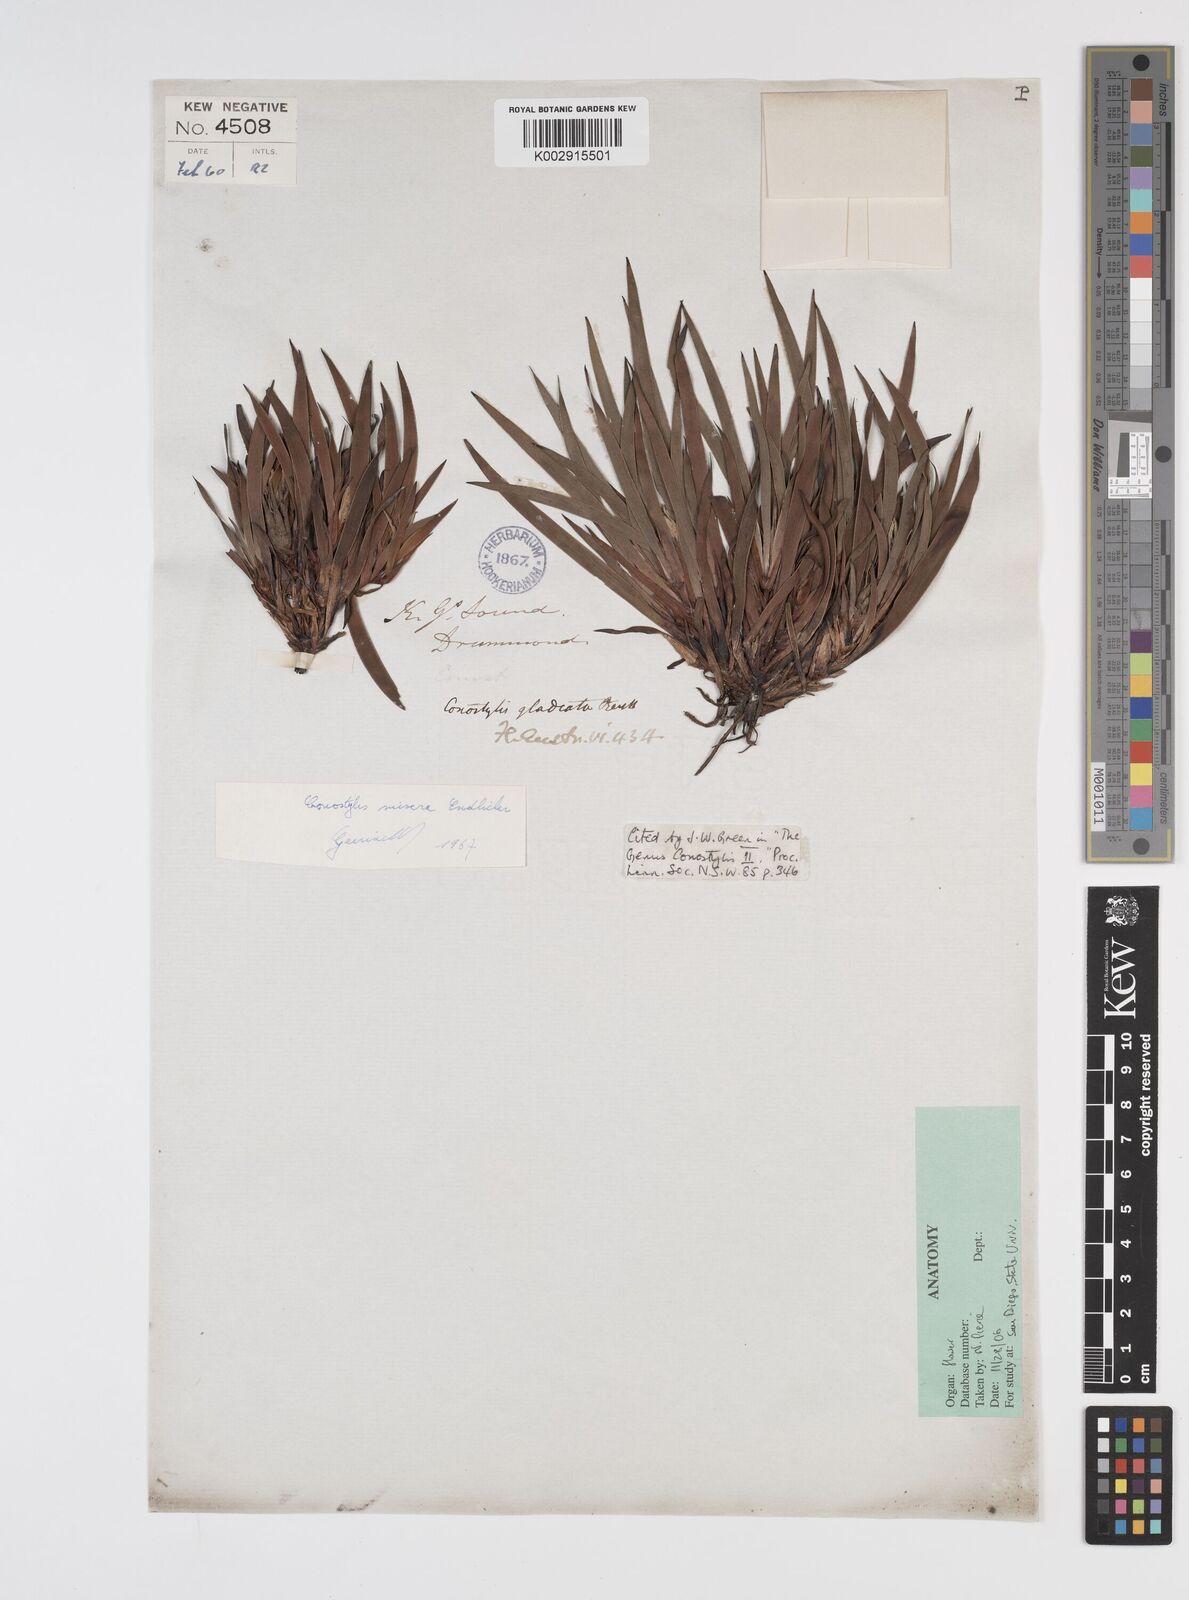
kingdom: Plantae
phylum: Tracheophyta
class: Liliopsida
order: Commelinales
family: Haemodoraceae
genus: Conostylis
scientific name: Conostylis misera
